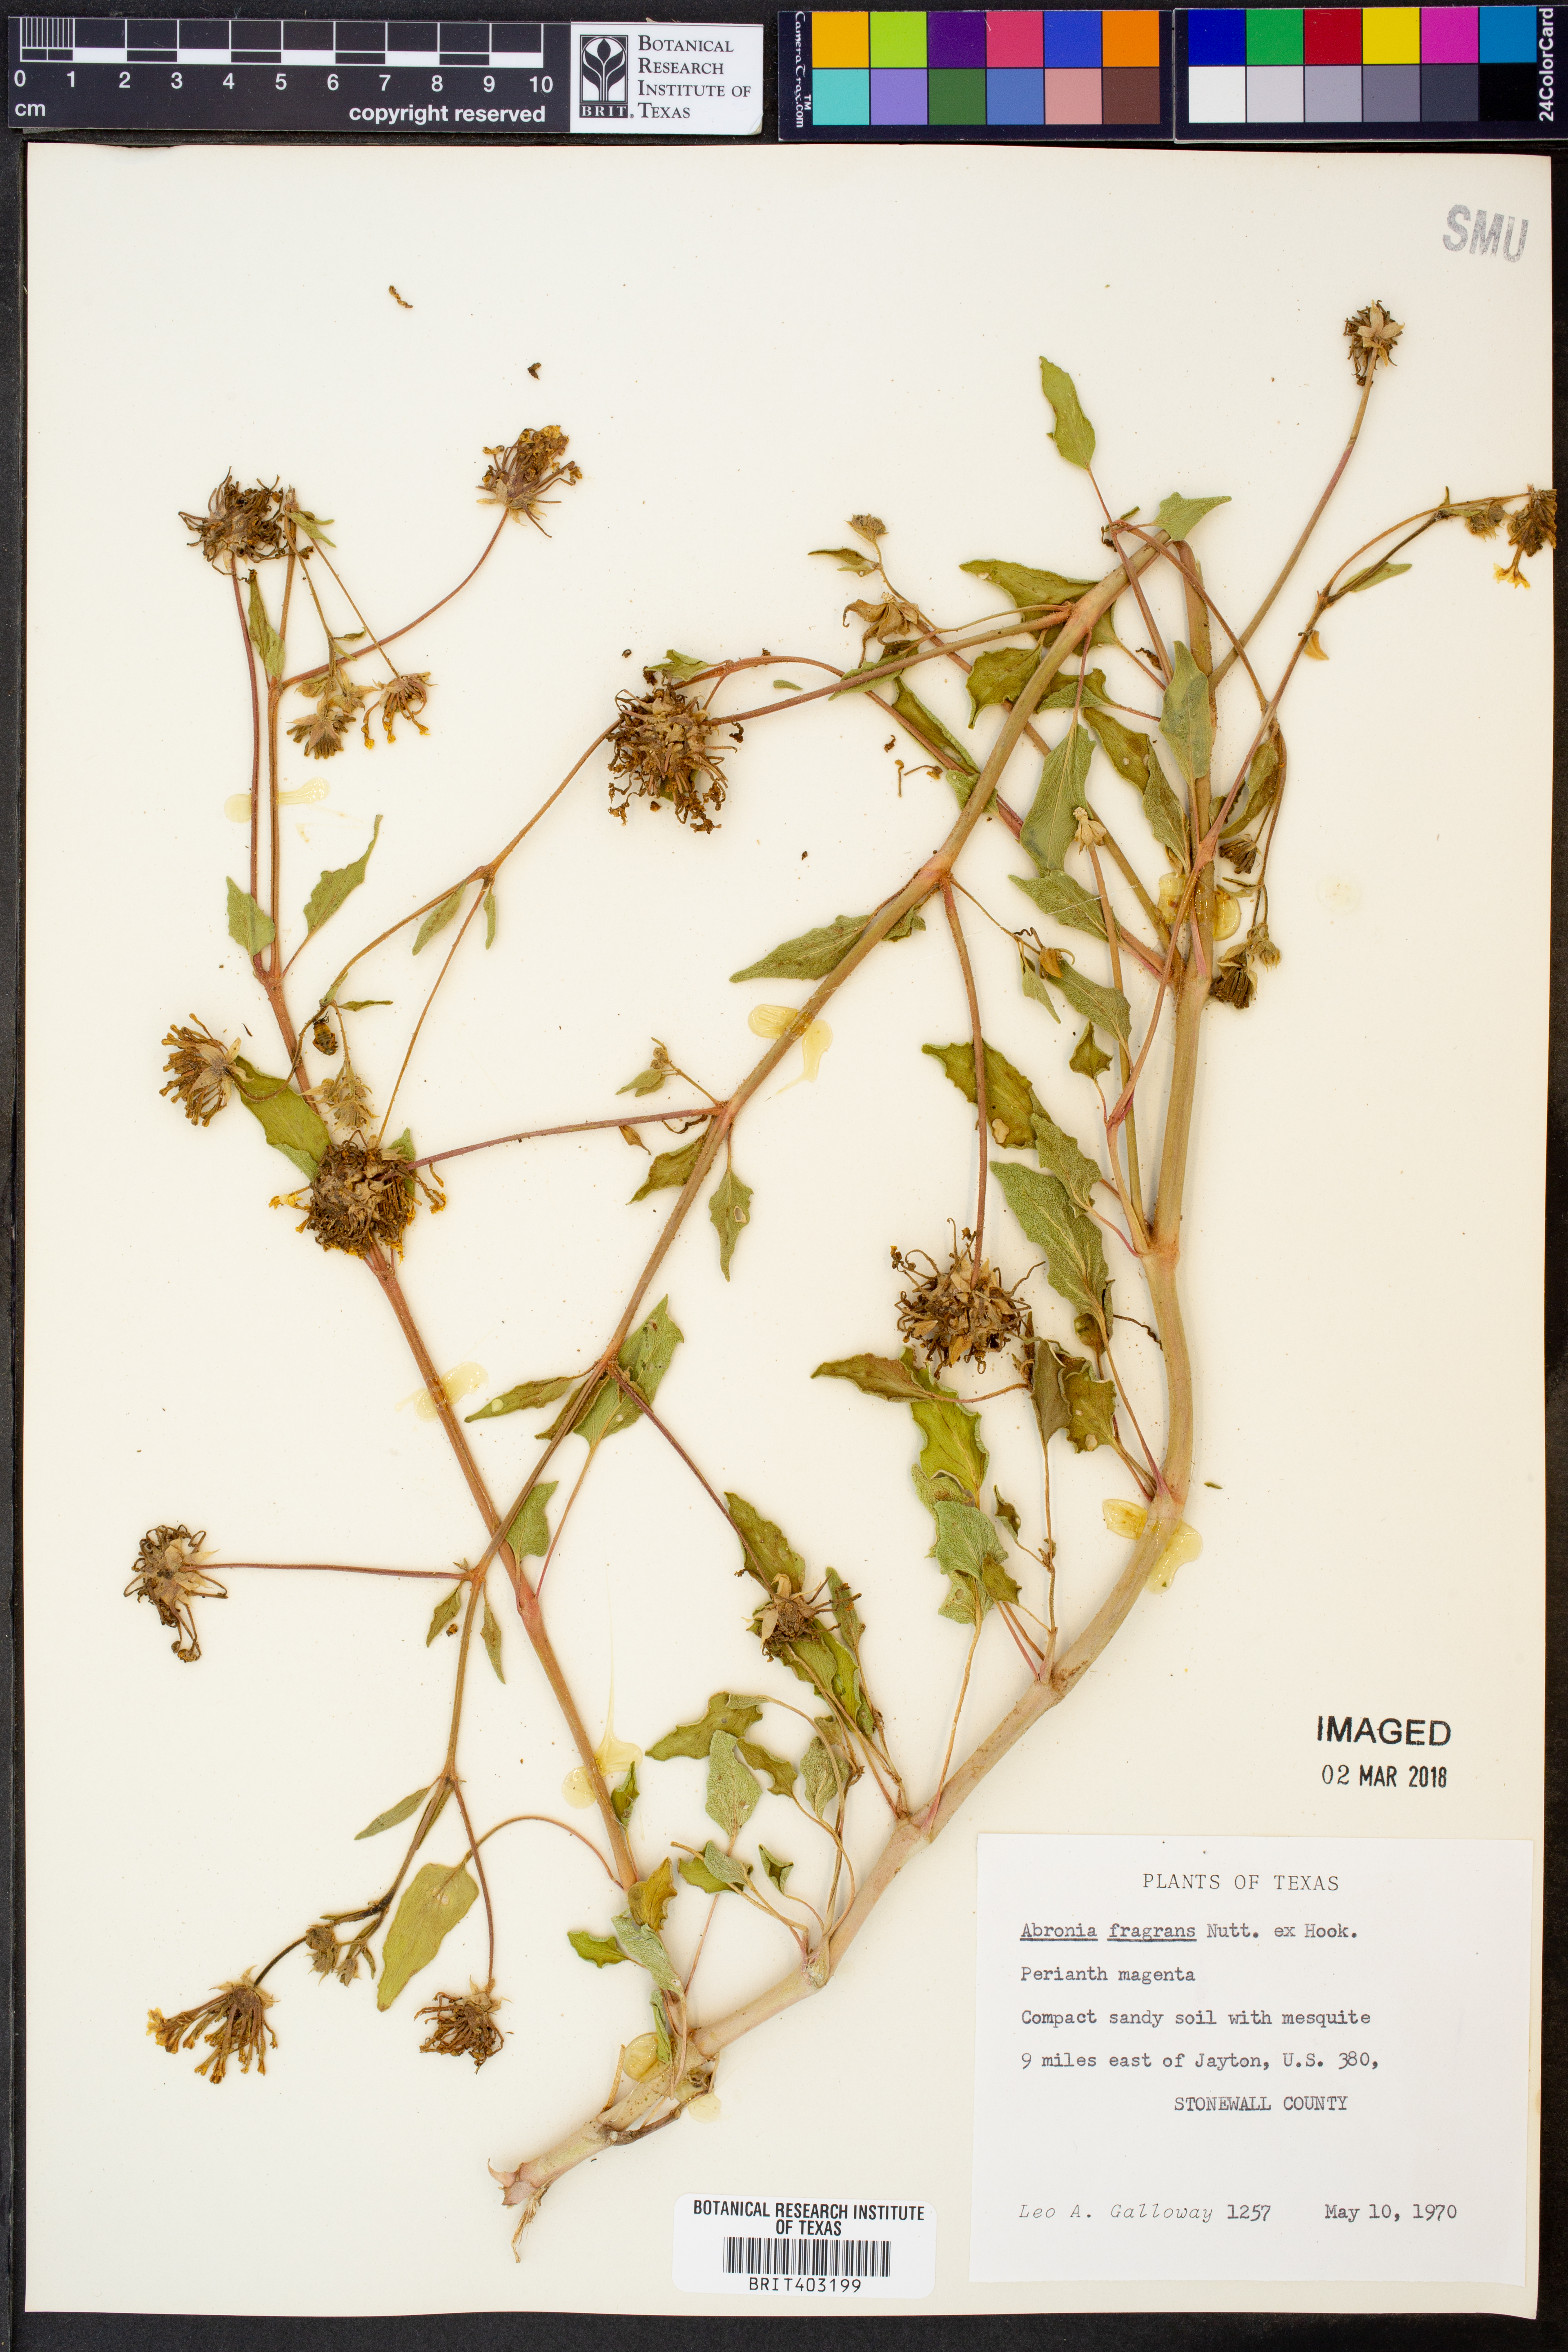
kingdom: Plantae
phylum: Tracheophyta
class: Magnoliopsida
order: Caryophyllales
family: Nyctaginaceae
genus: Abronia
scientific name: Abronia fragrans
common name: Fragrant sand-verbena
